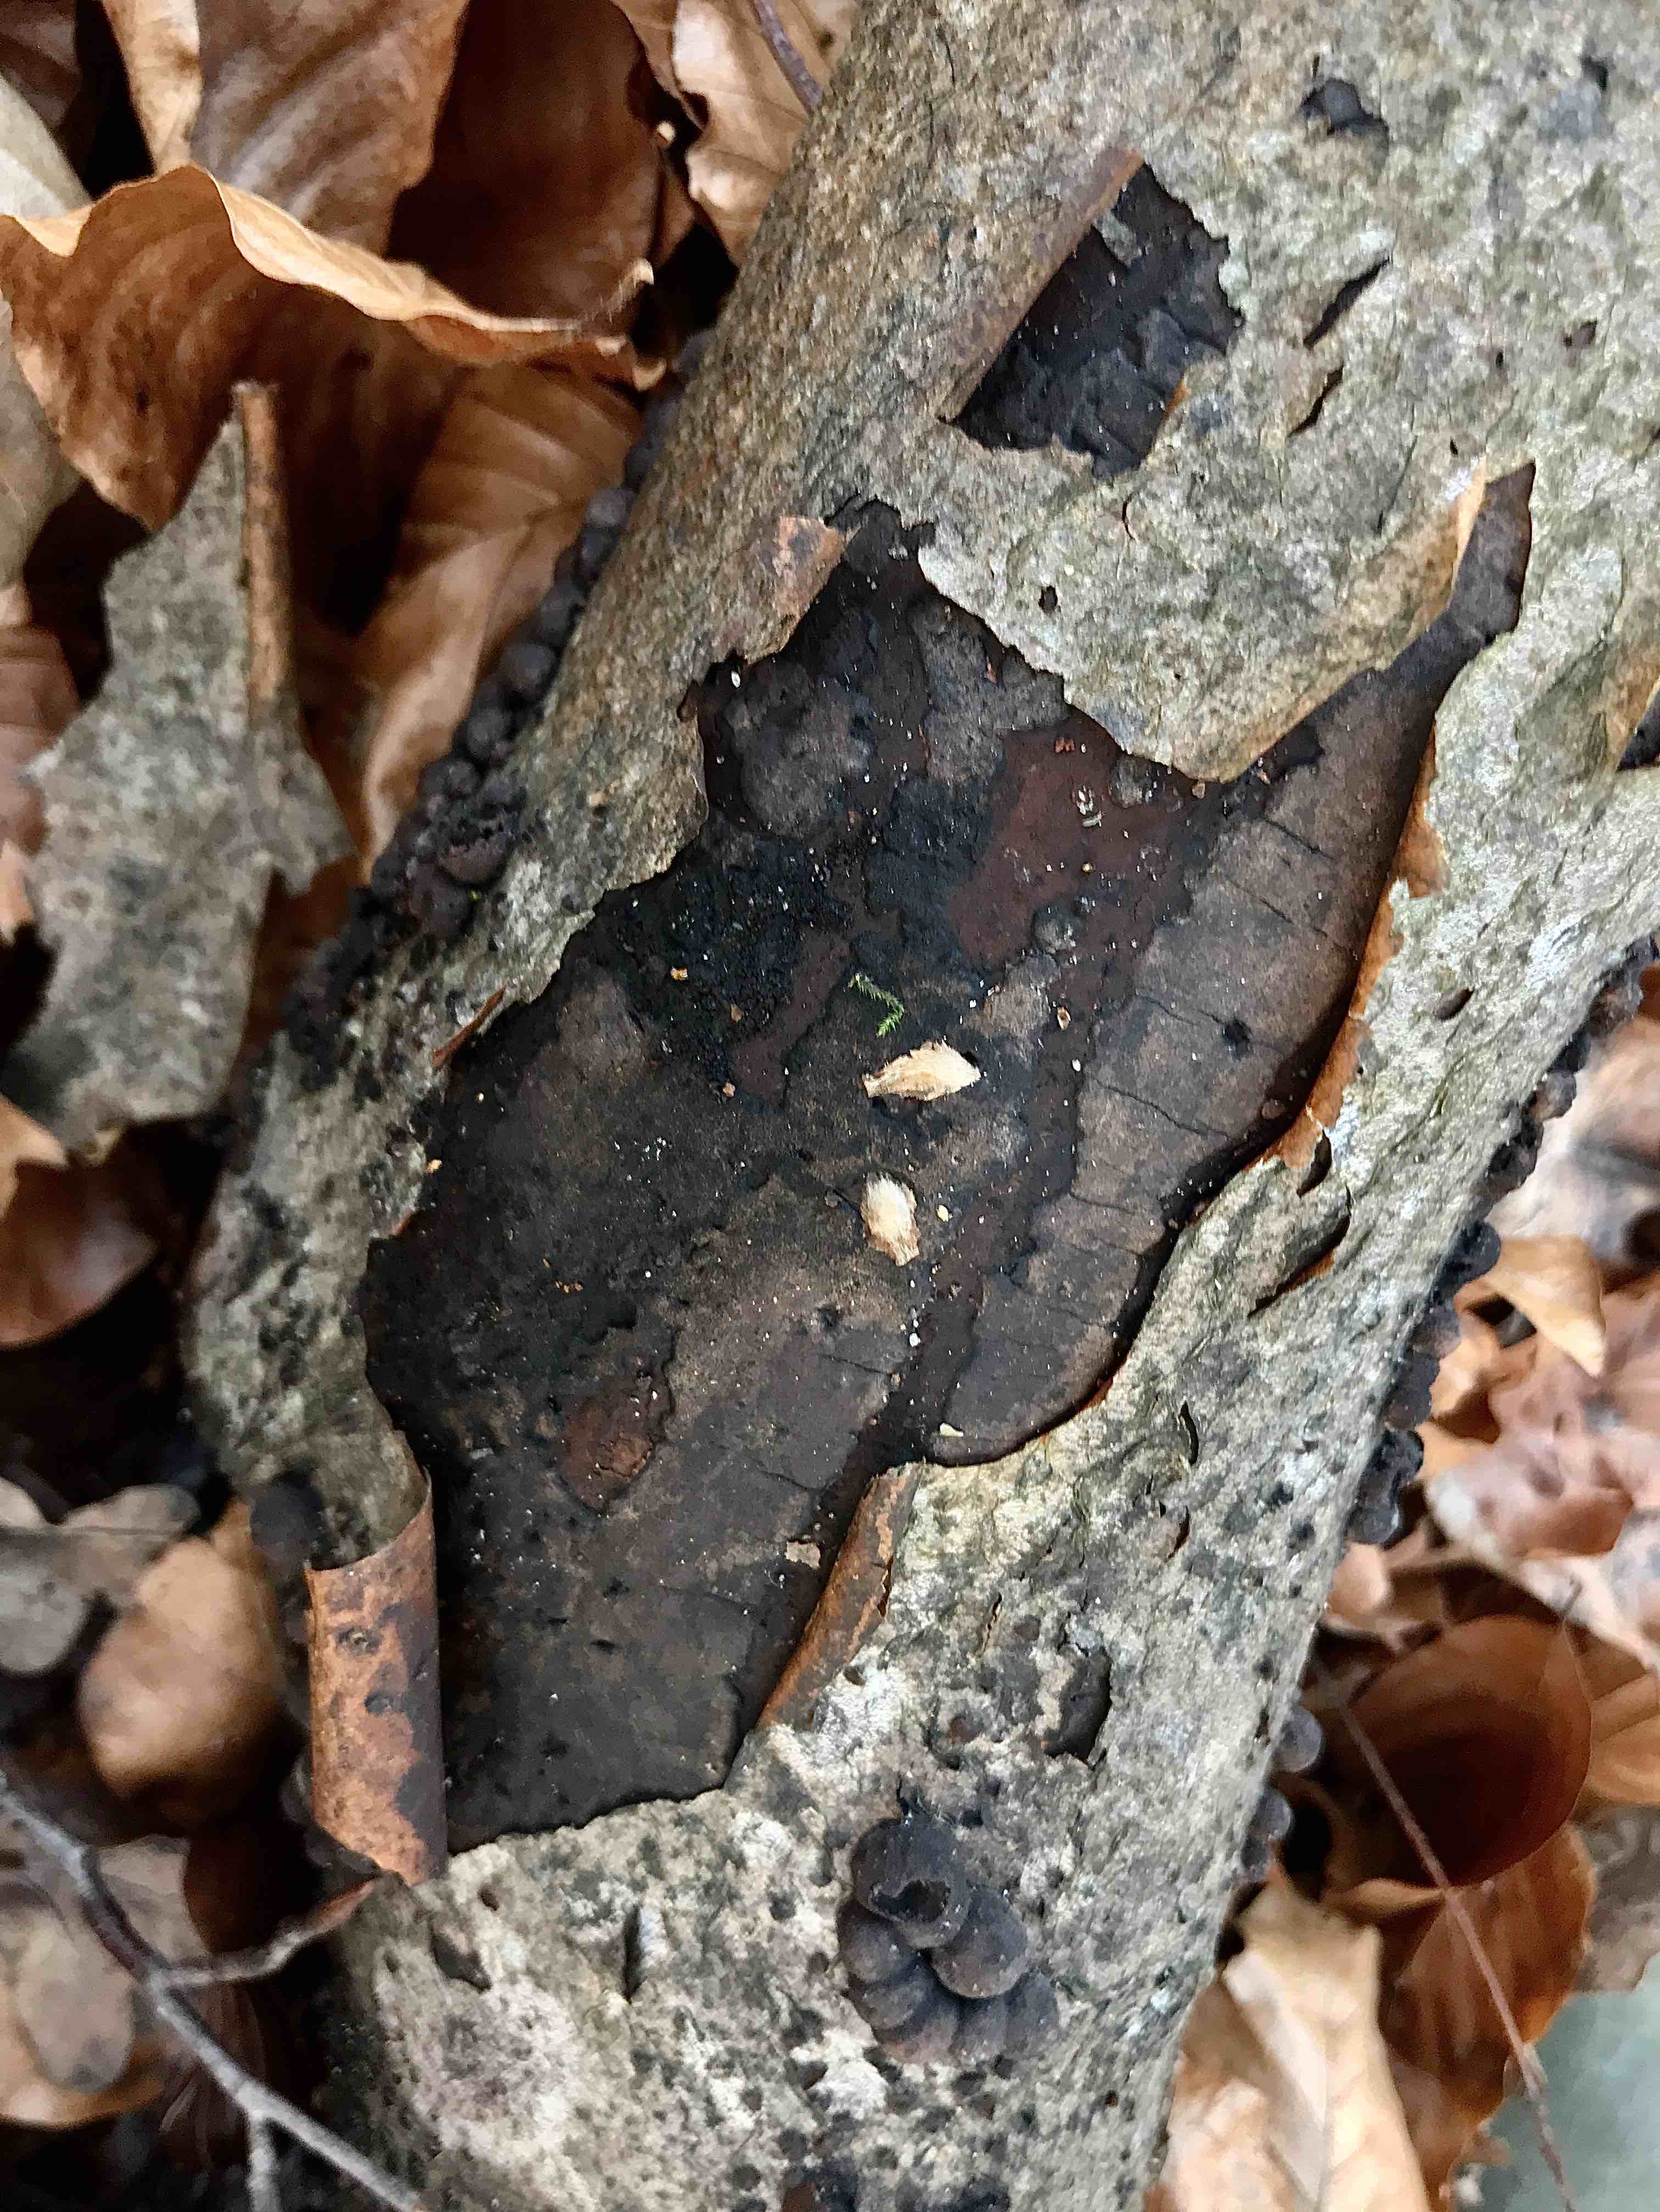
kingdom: Fungi
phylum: Ascomycota
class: Sordariomycetes
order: Xylariales
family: Diatrypaceae
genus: Diatrype
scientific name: Diatrype decorticata
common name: barksprænger-kulskorpe
